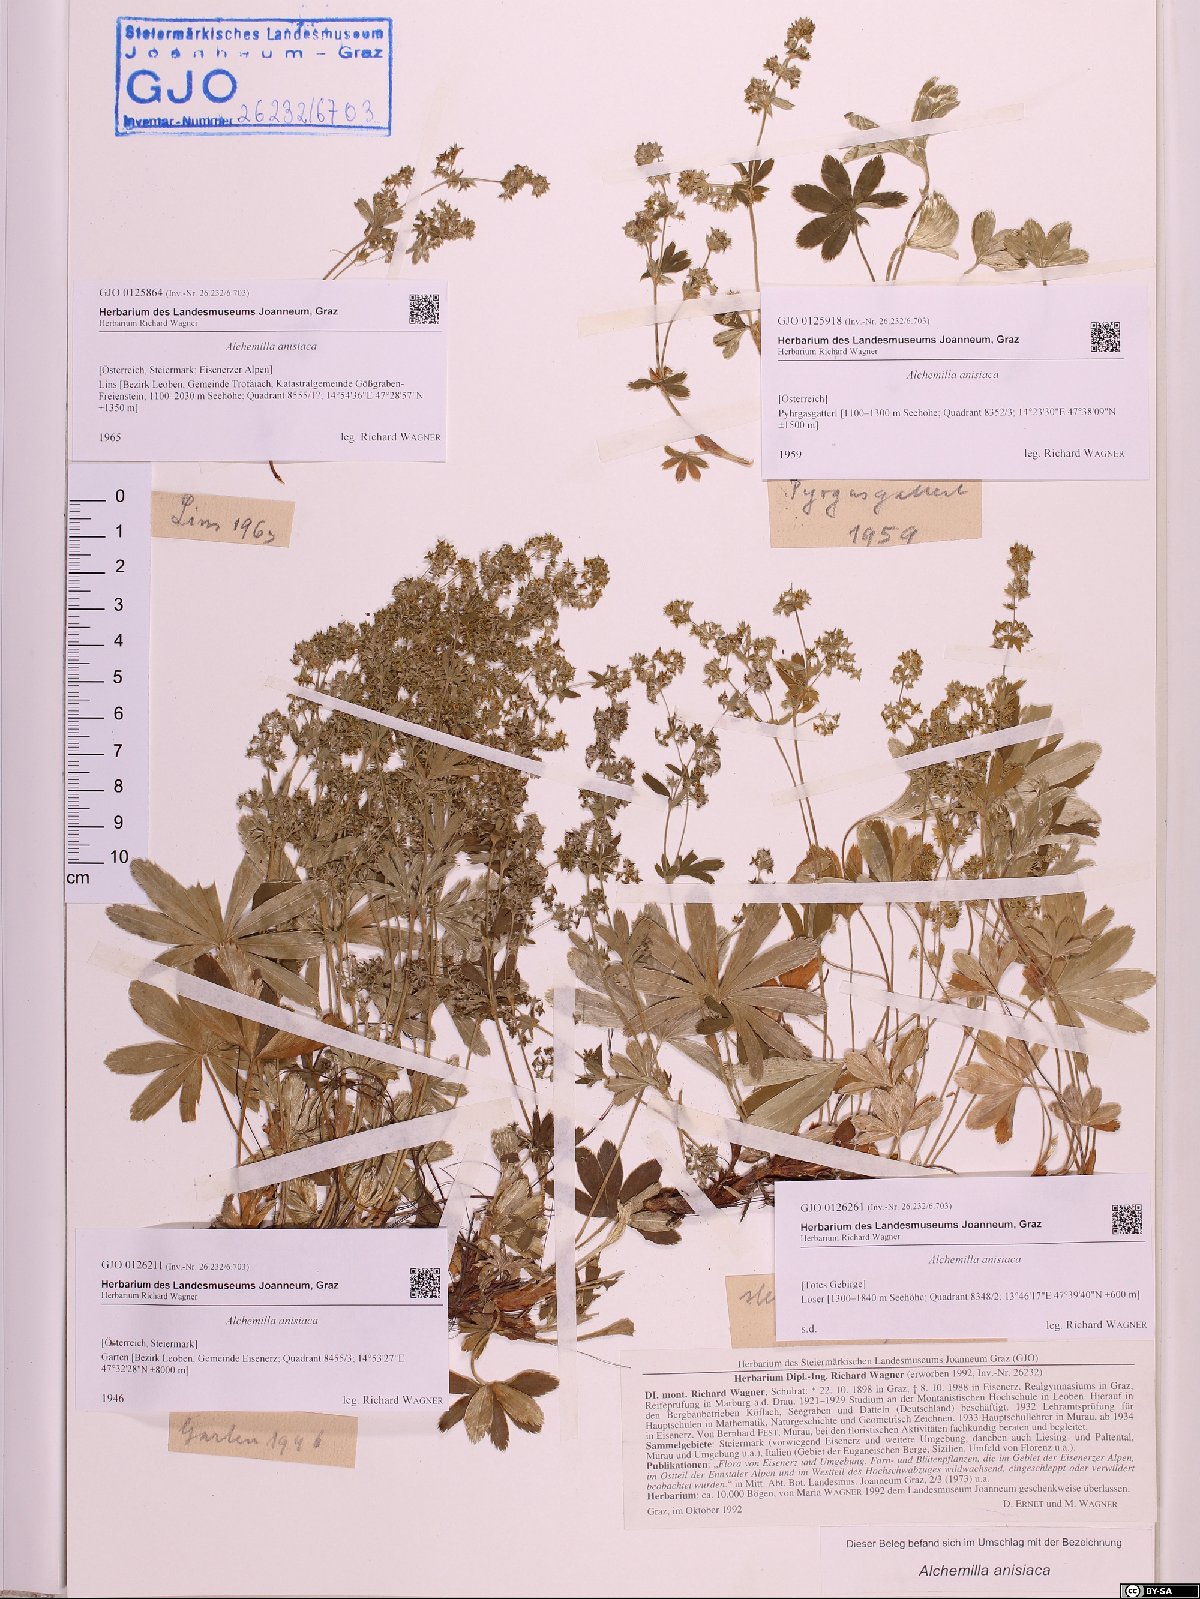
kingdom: Plantae
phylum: Tracheophyta
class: Magnoliopsida
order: Rosales
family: Rosaceae
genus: Alchemilla
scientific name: Alchemilla anisiaca
